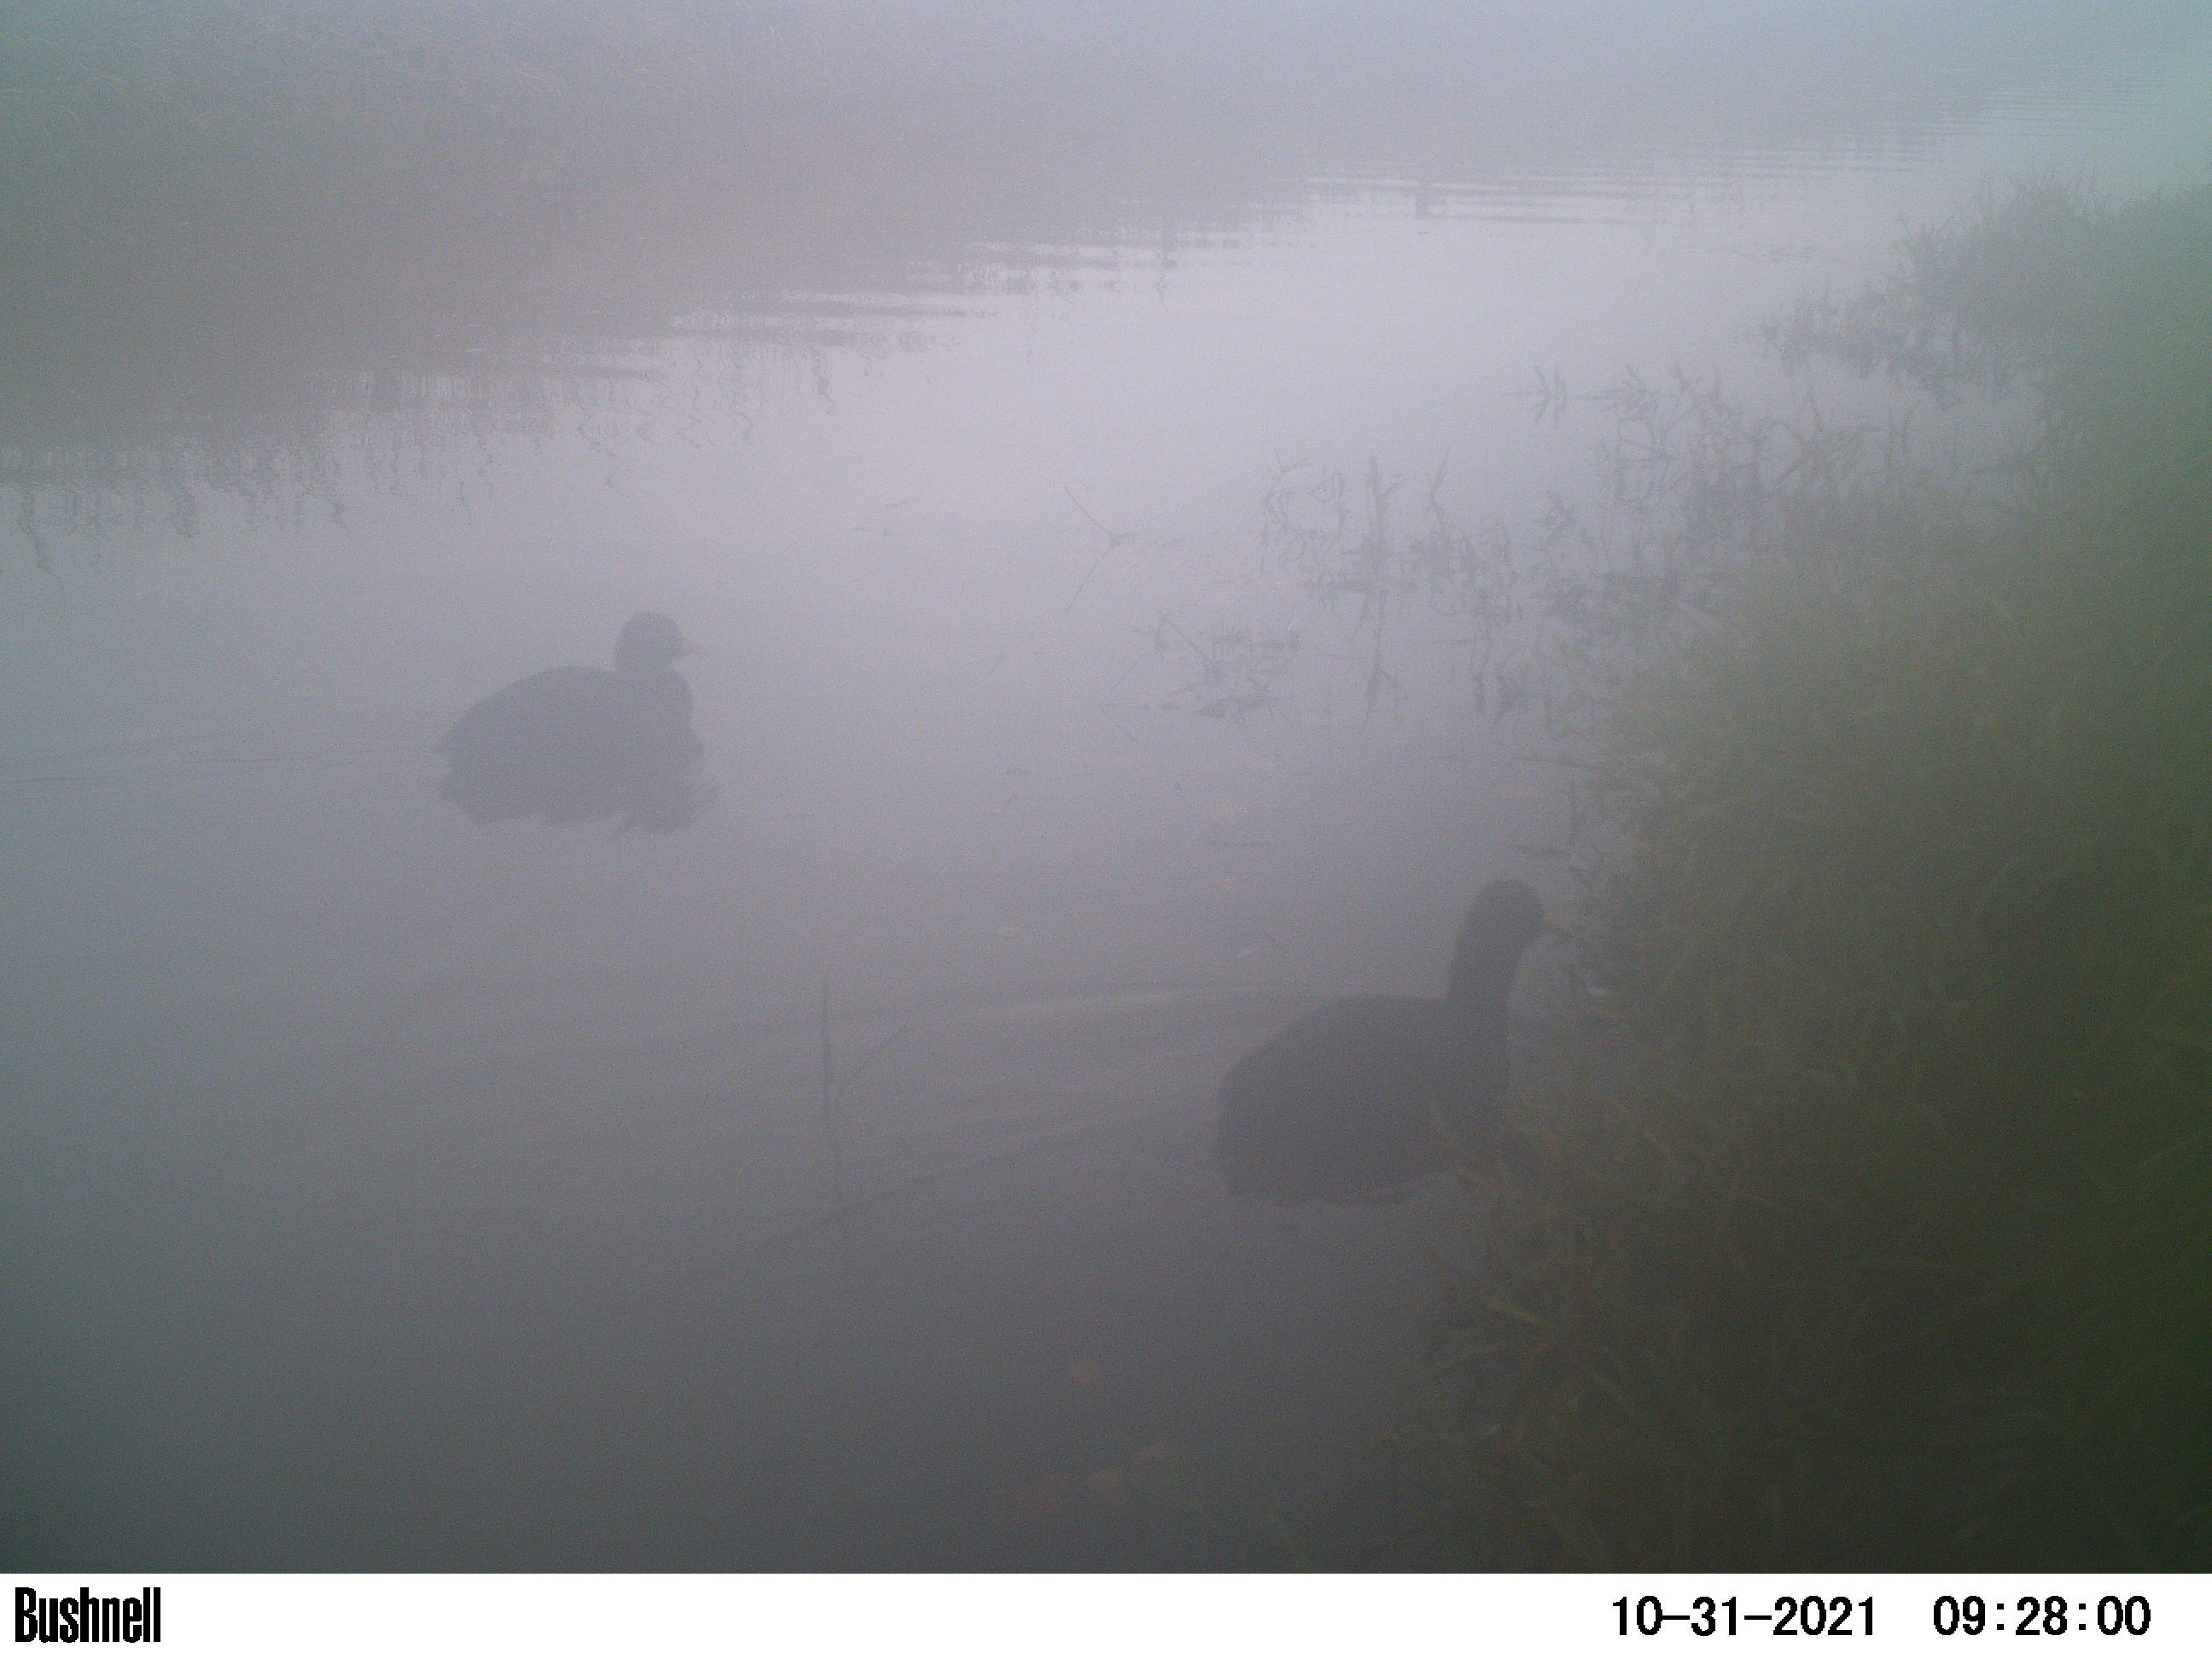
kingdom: Animalia
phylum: Chordata
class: Aves
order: Gruiformes
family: Rallidae
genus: Fulica
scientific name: Fulica atra
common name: Eurasian coot
